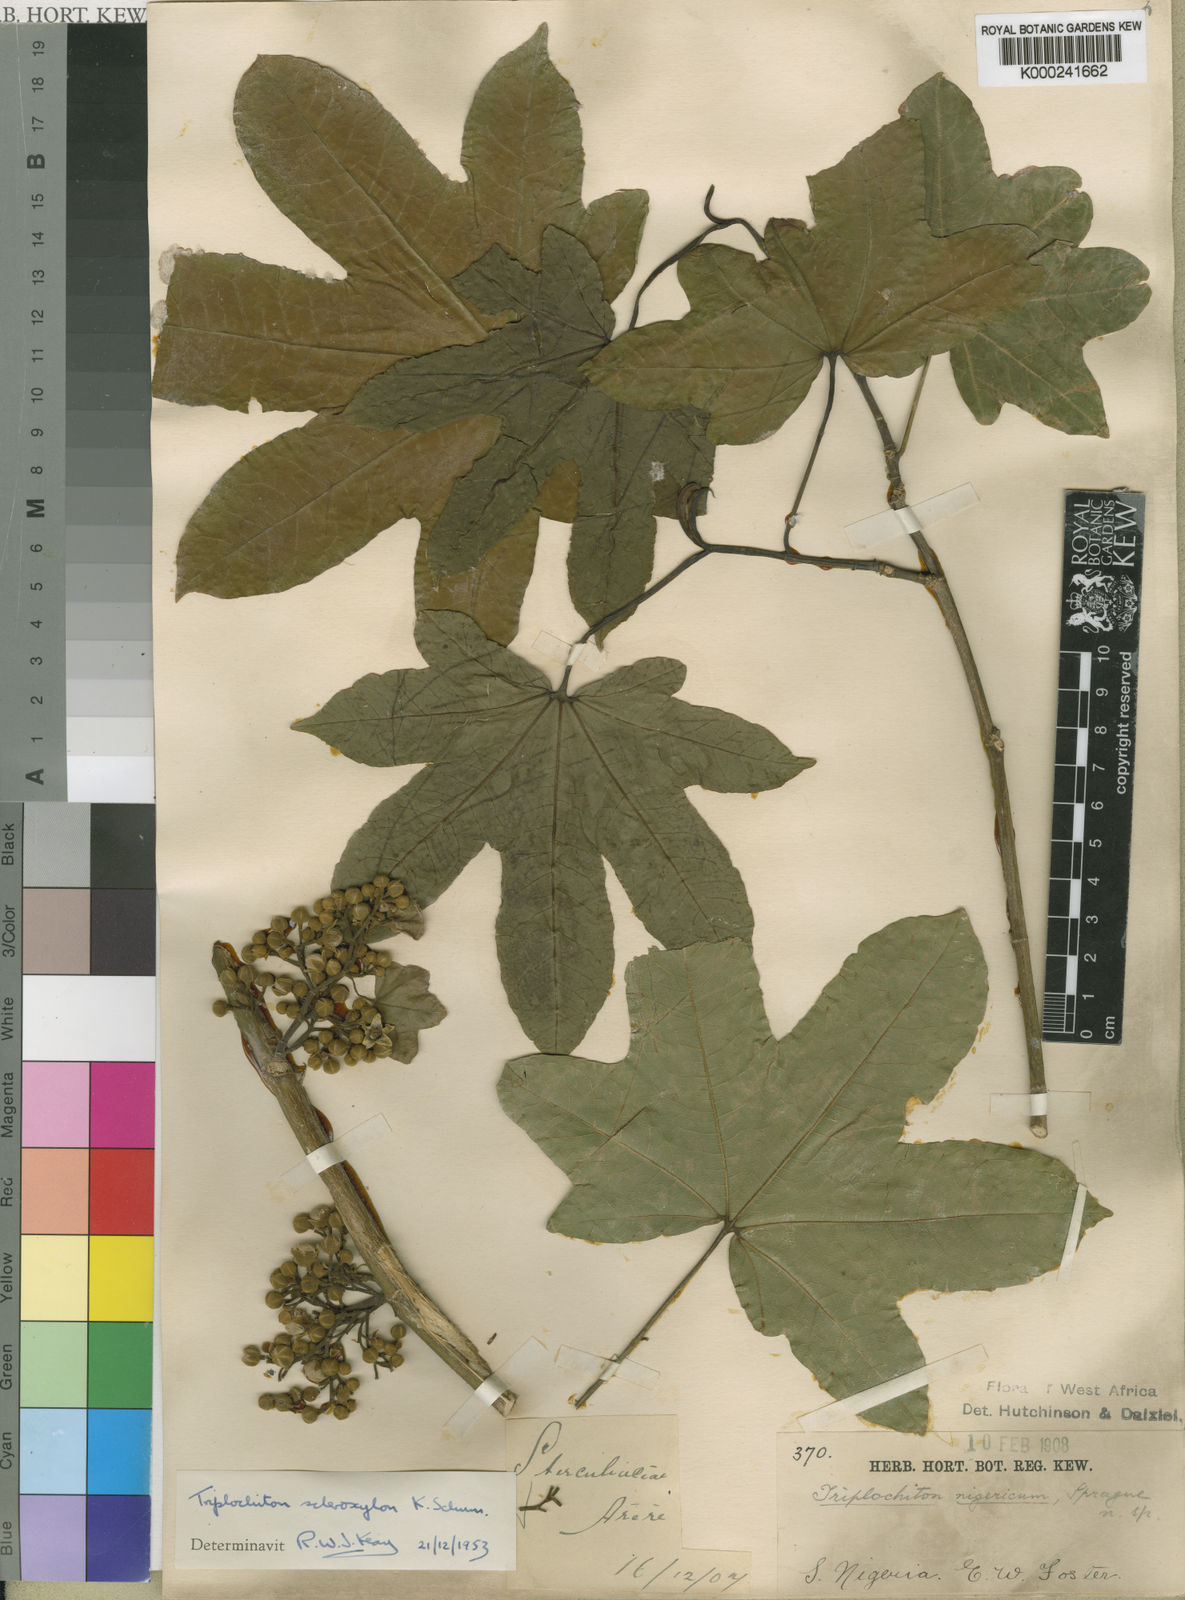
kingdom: Plantae
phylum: Tracheophyta
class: Magnoliopsida
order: Malvales
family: Malvaceae
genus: Triplochiton
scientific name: Triplochiton scleroxylon
